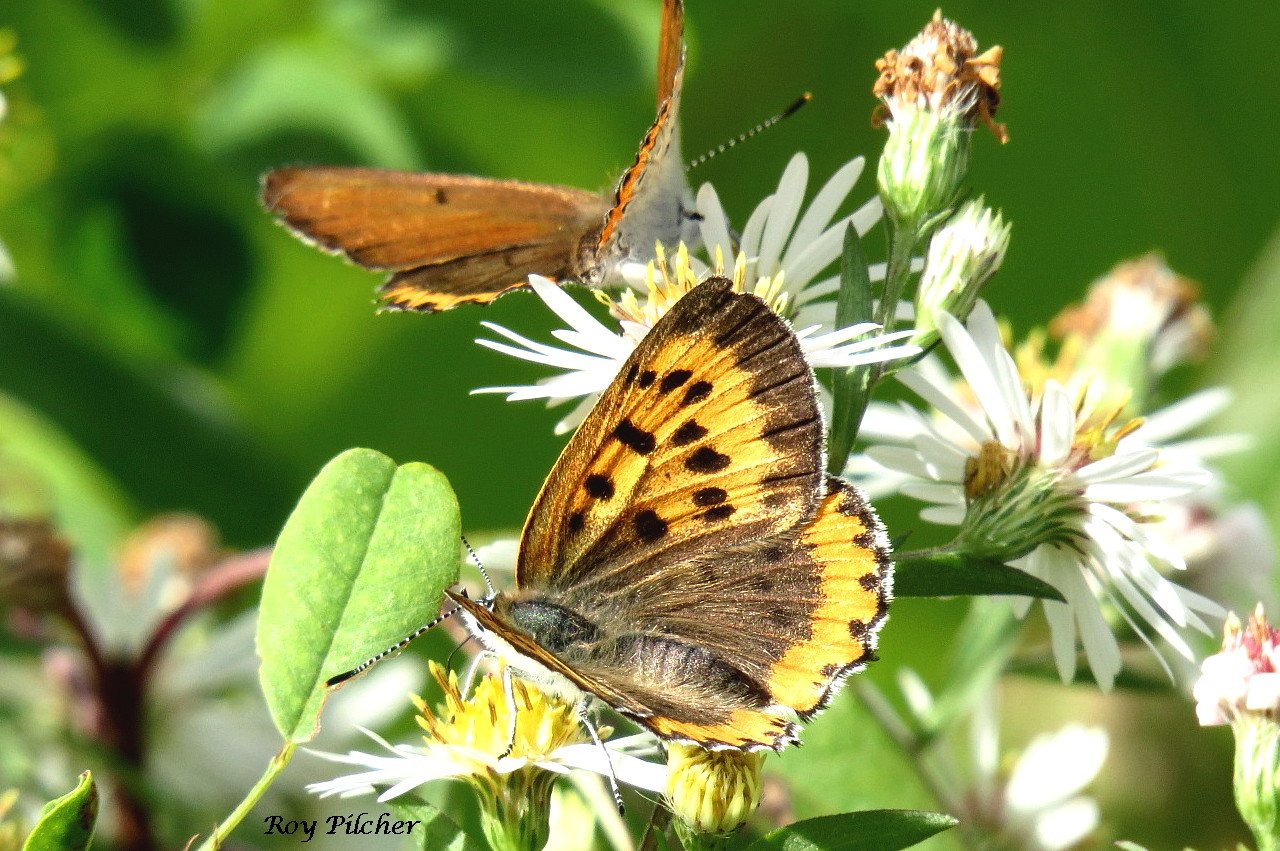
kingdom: Animalia
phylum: Arthropoda
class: Insecta
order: Lepidoptera
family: Sesiidae
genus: Sesia
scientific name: Sesia Lycaena hyllus
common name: Bronze Copper
